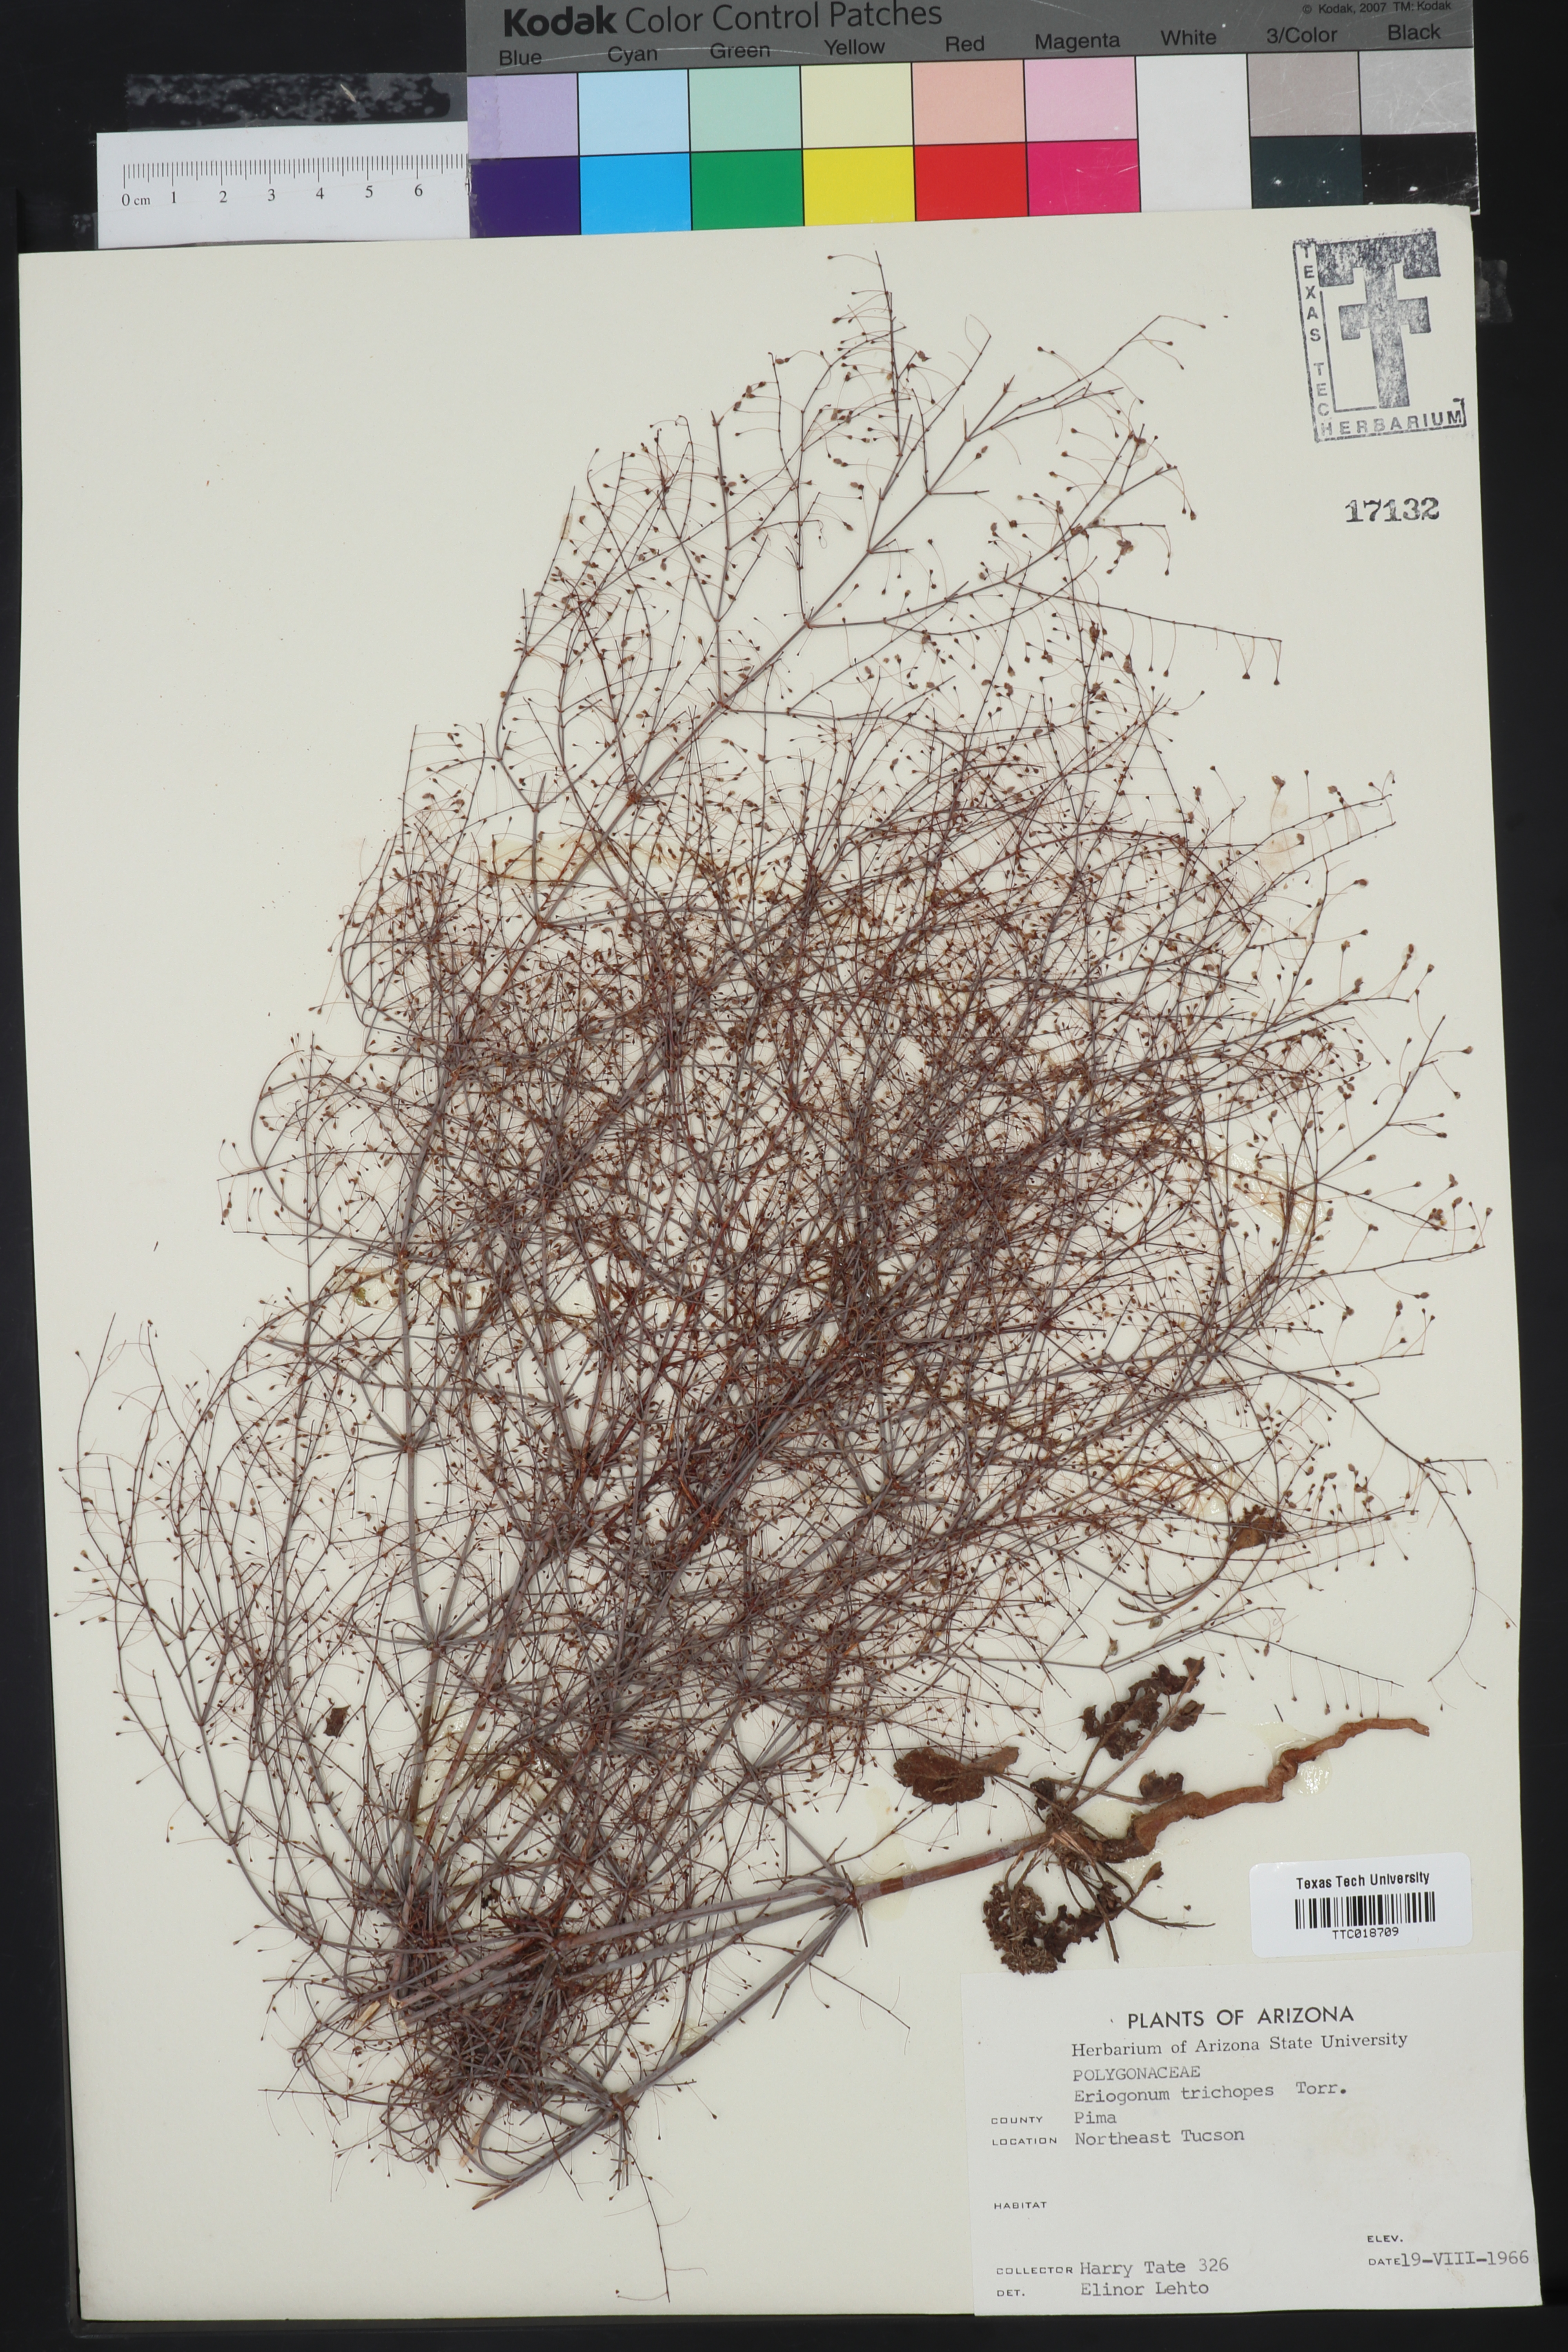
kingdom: Plantae
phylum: Tracheophyta
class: Magnoliopsida
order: Caryophyllales
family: Polygonaceae
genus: Eriogonum
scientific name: Eriogonum trichopes
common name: Little desert trumpet
